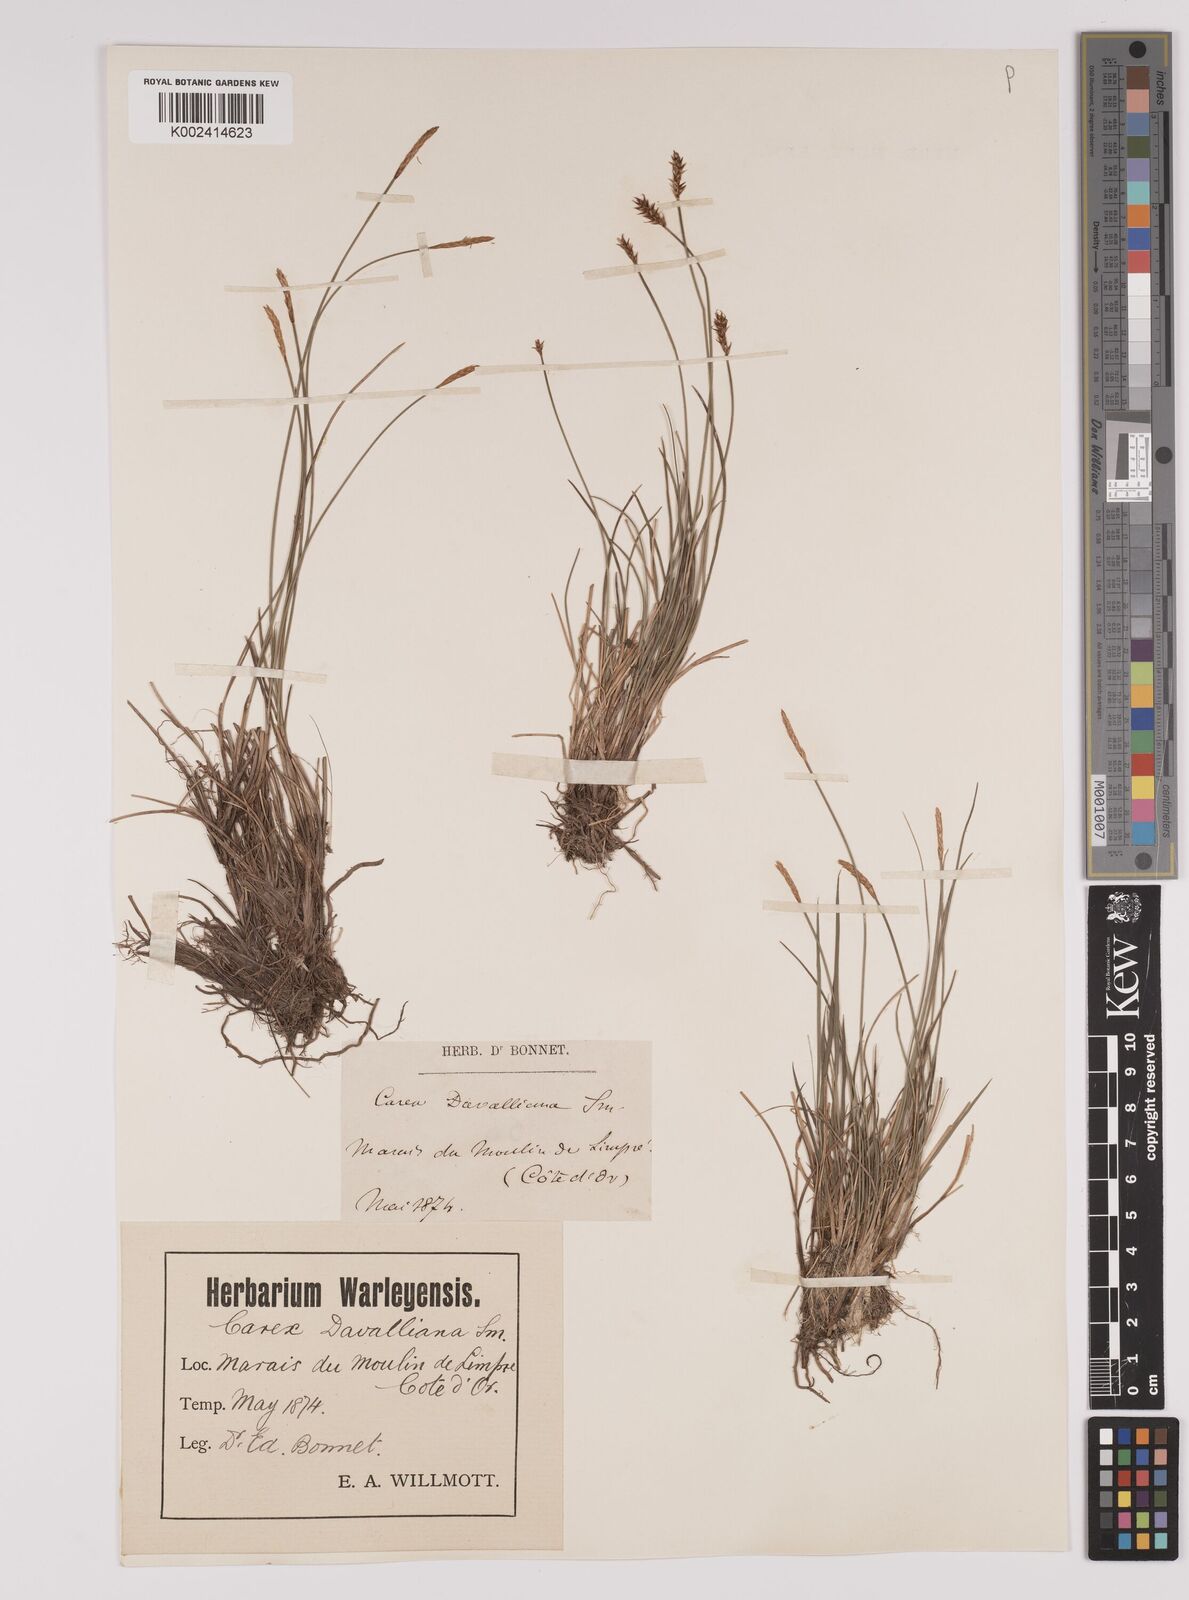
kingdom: Plantae
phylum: Tracheophyta
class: Liliopsida
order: Poales
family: Cyperaceae
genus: Carex
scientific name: Carex davalliana
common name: Davall's sedge
